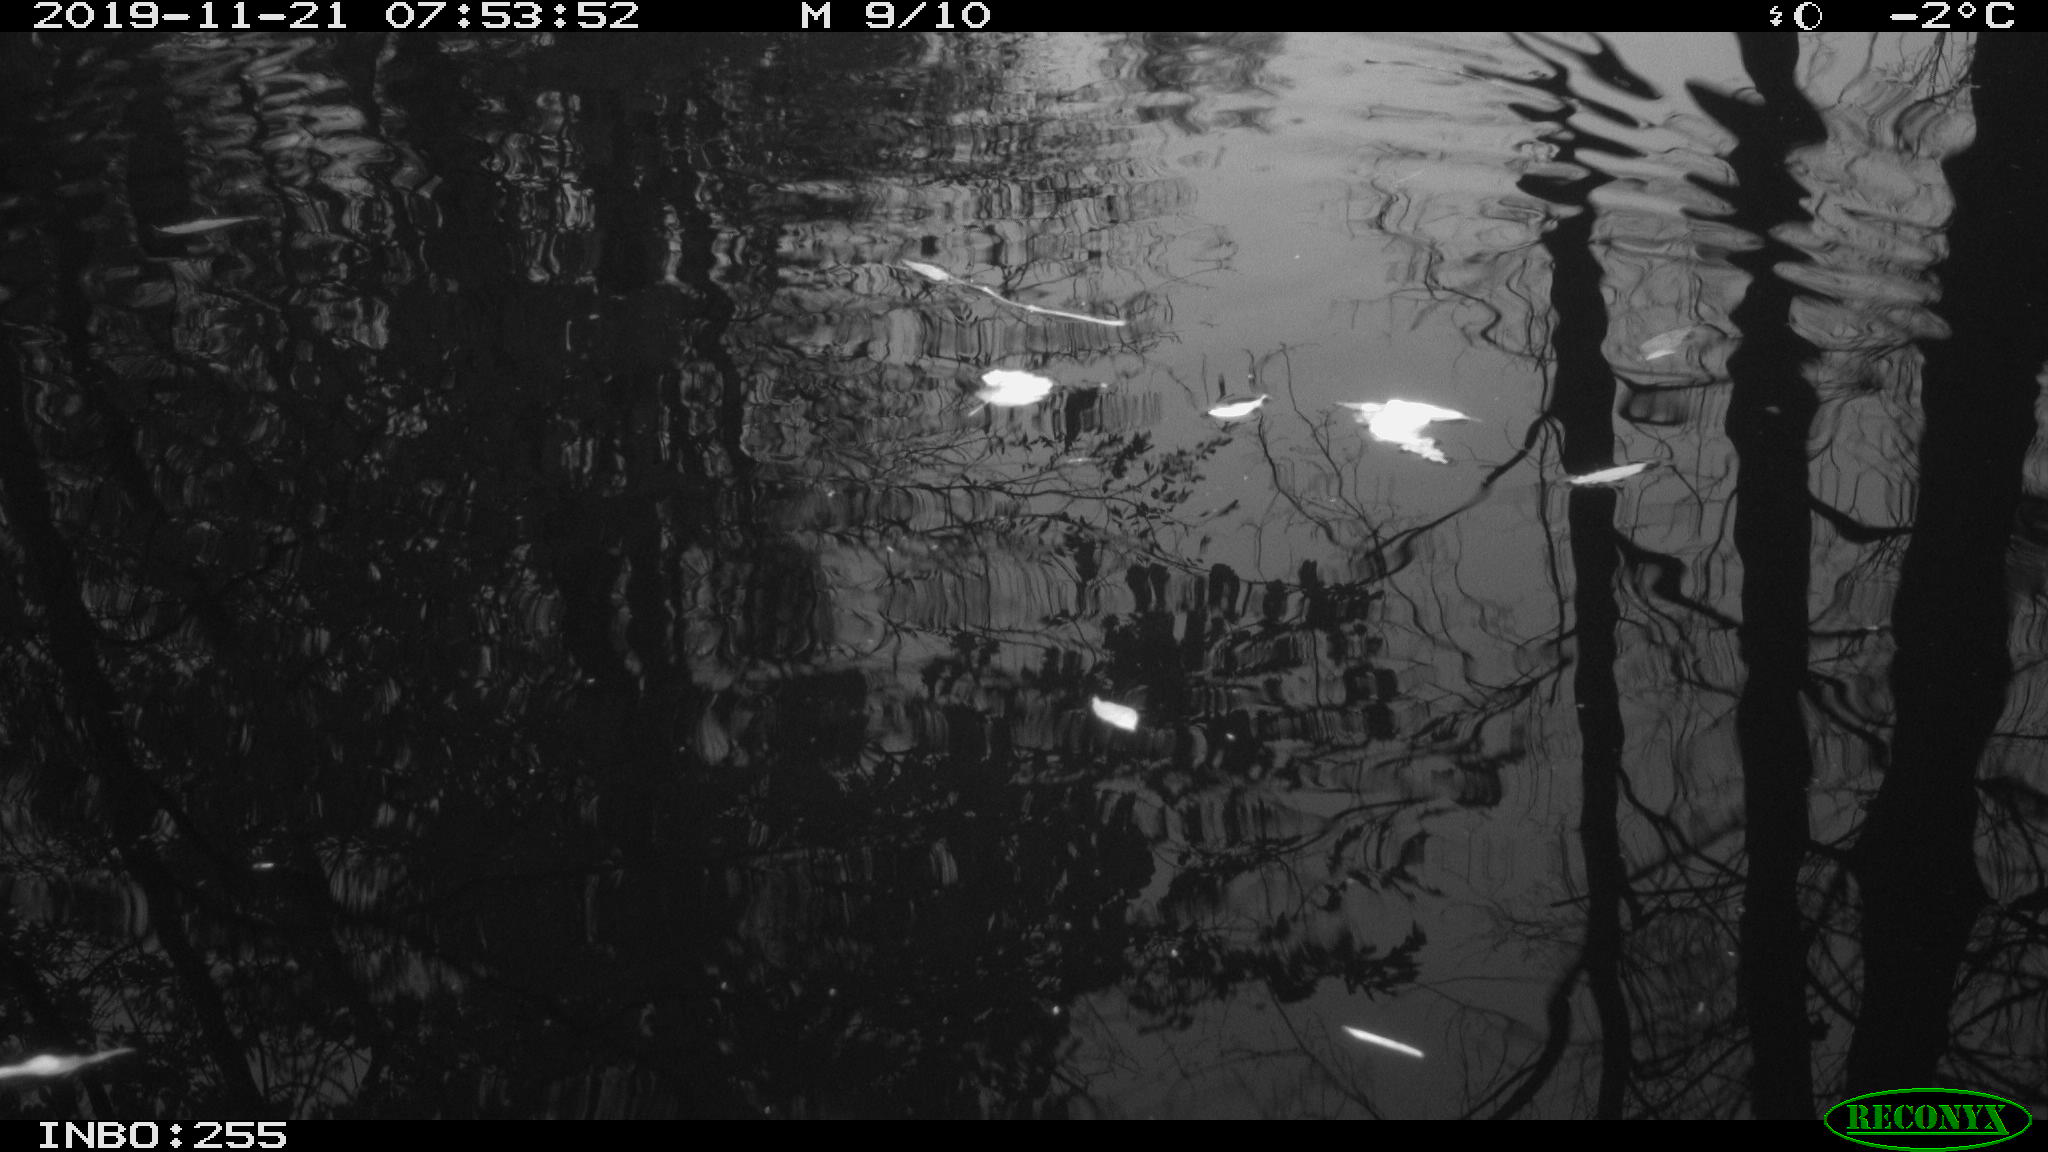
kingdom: Animalia
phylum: Chordata
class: Aves
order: Gruiformes
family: Rallidae
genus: Gallinula
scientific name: Gallinula chloropus
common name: Common moorhen
